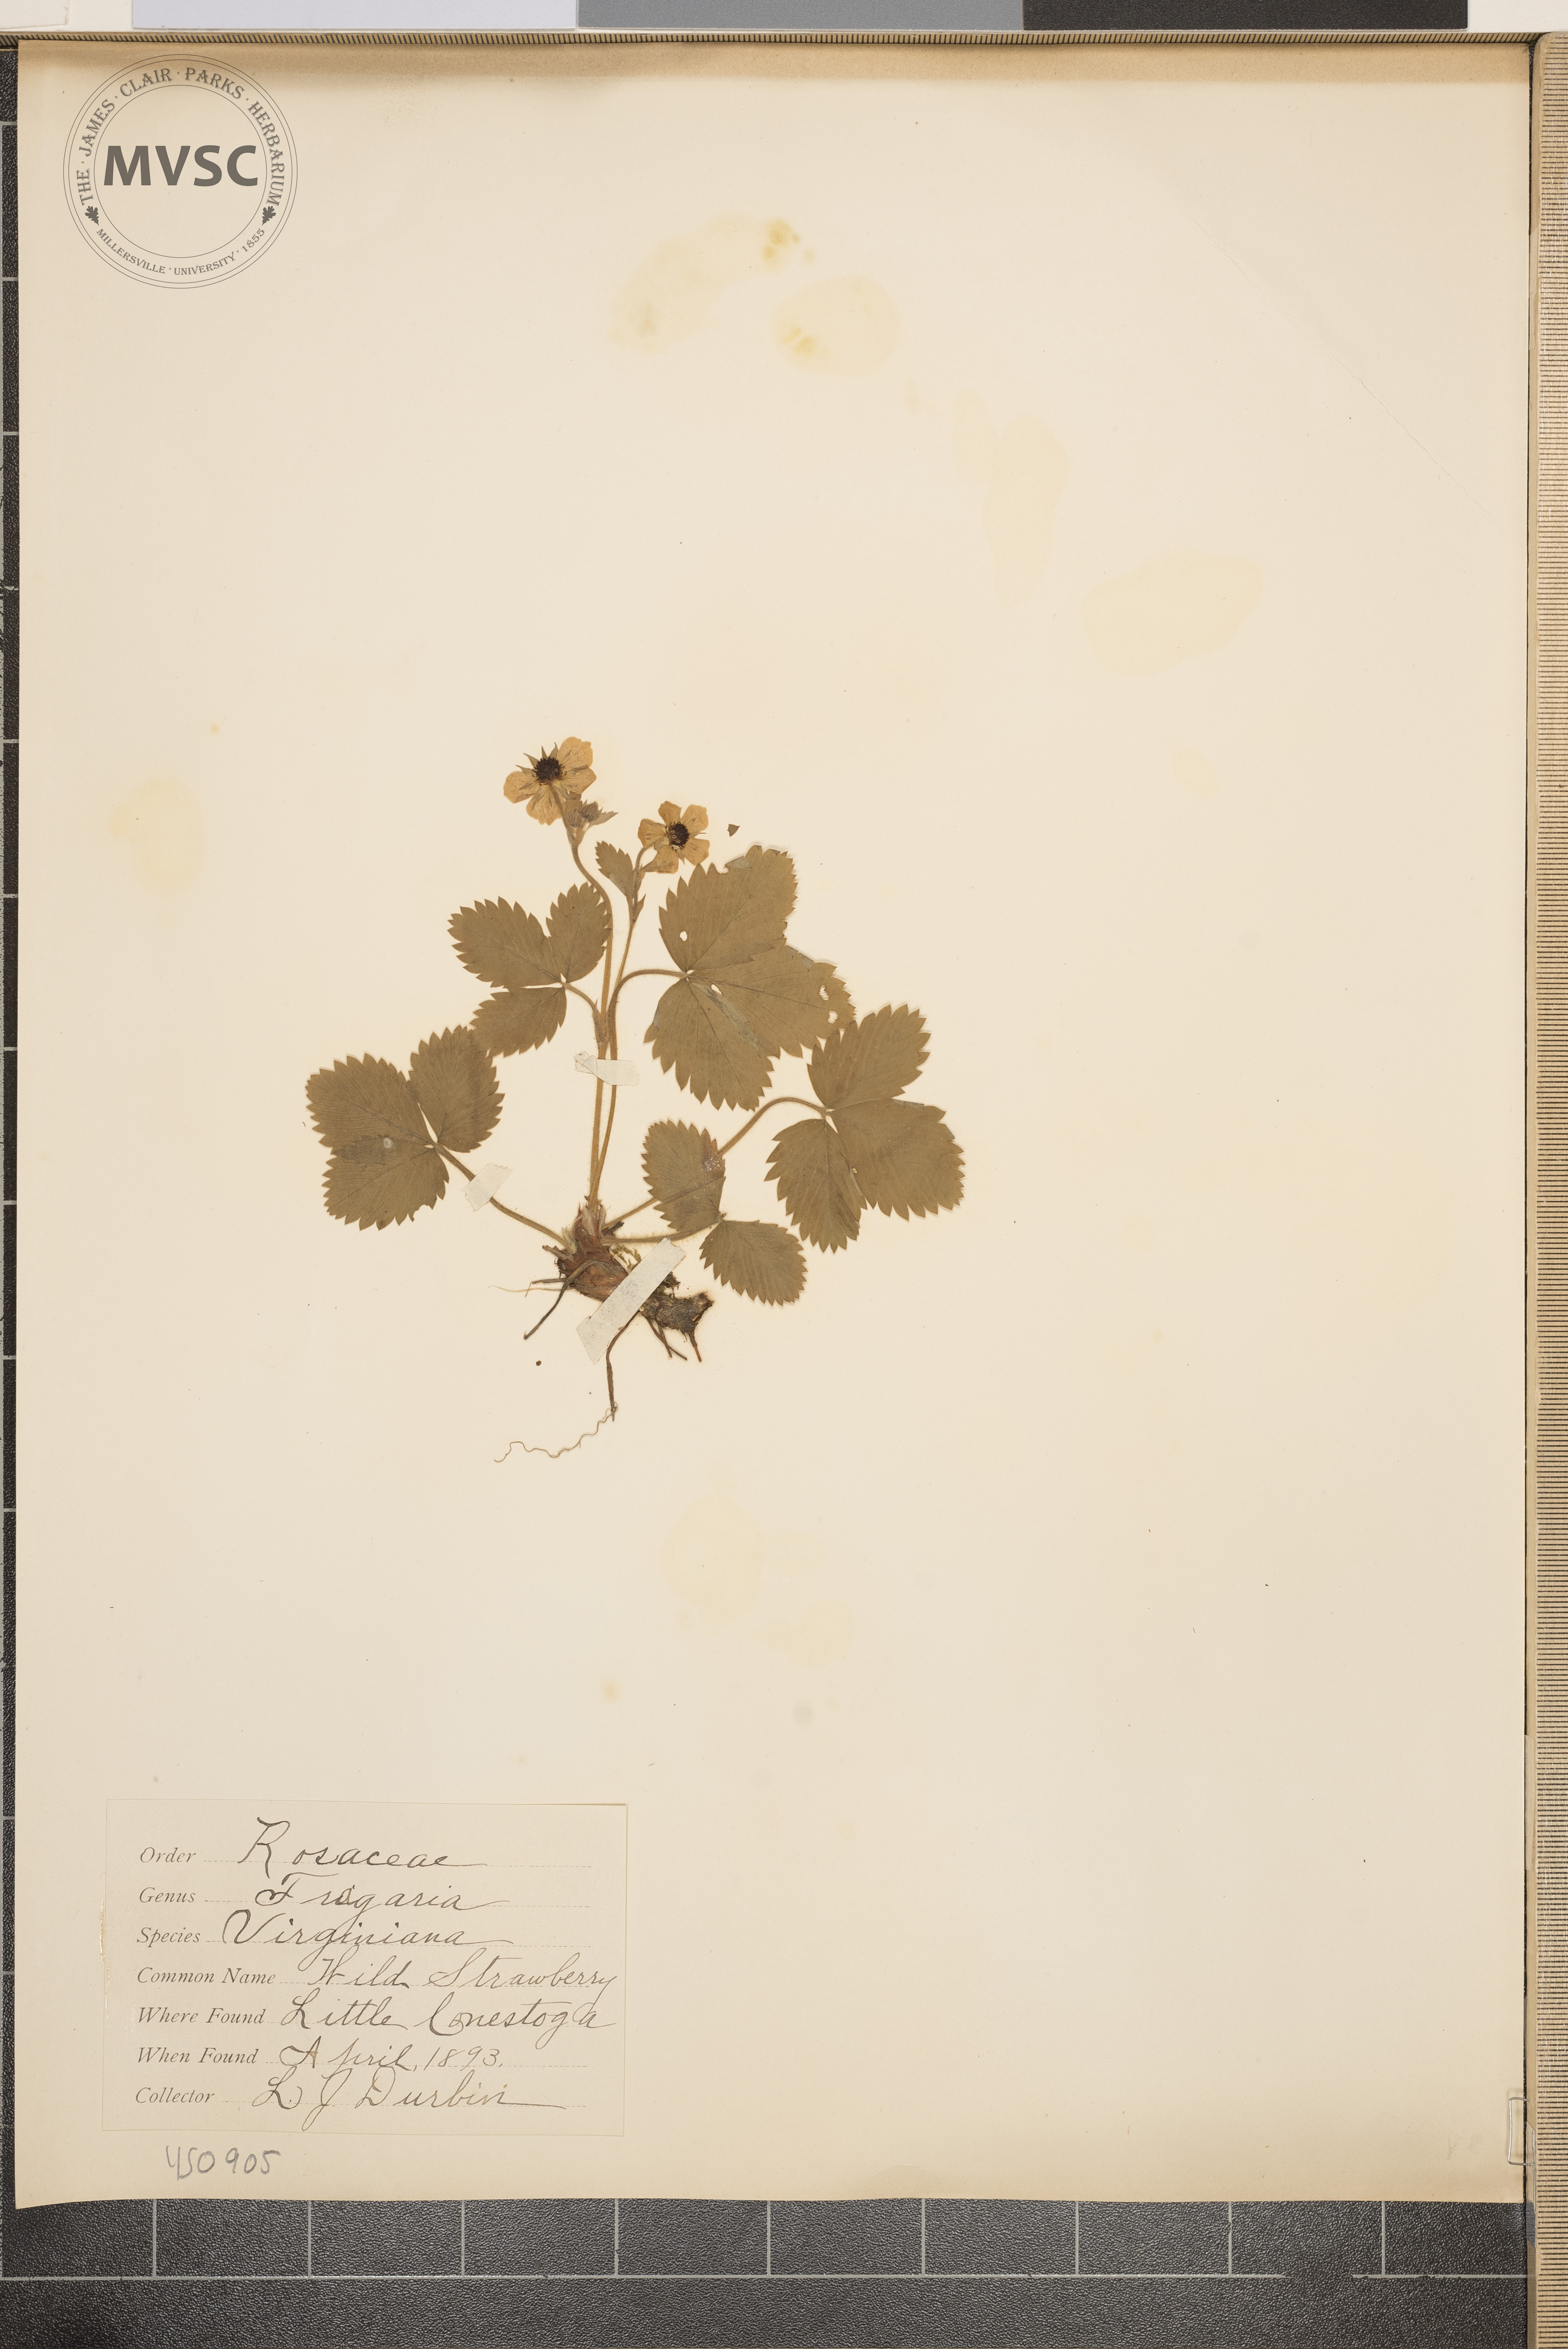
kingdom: Plantae
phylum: Tracheophyta
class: Magnoliopsida
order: Rosales
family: Rosaceae
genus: Fragaria
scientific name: Fragaria virginiana
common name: Wild strawberry
